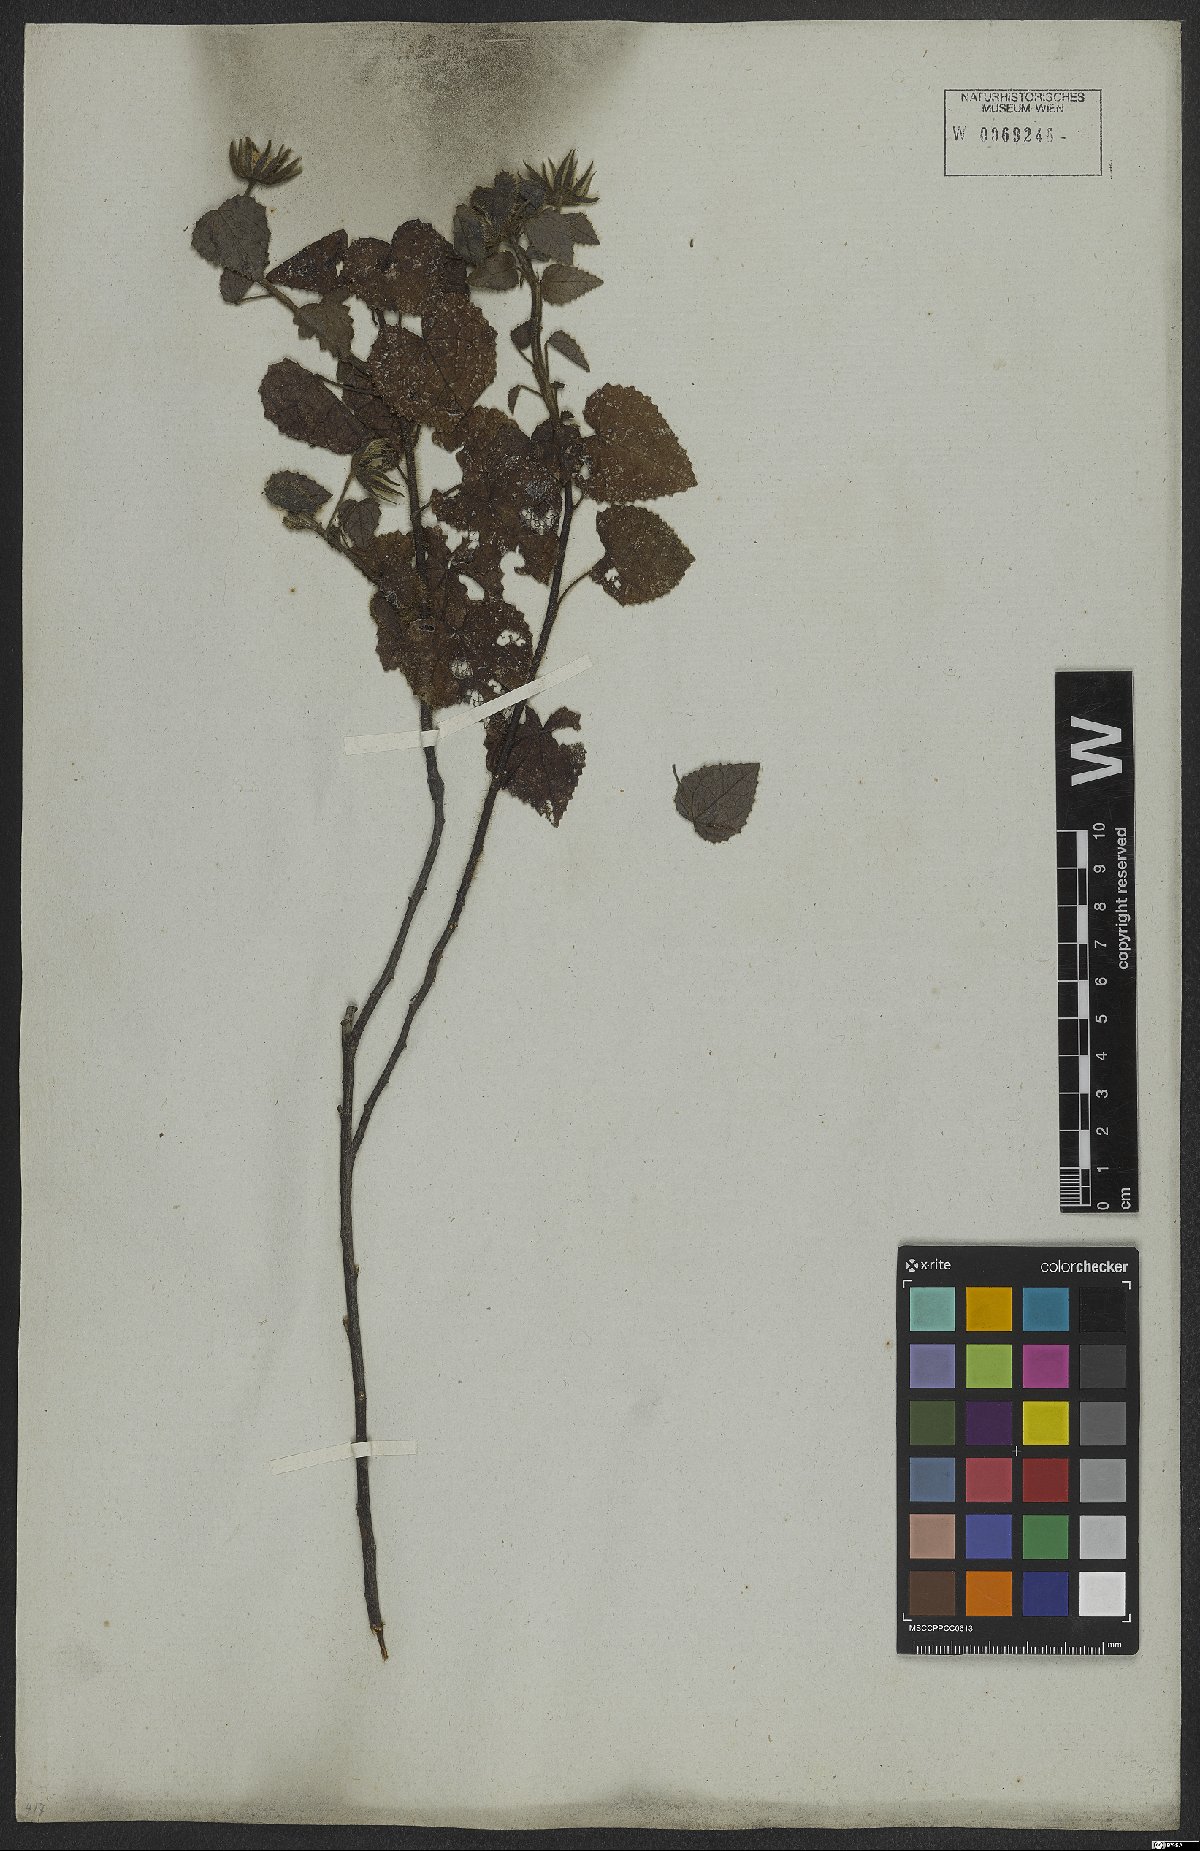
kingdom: Plantae
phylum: Tracheophyta
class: Magnoliopsida
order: Malvales
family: Malvaceae
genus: Pavonia
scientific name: Pavonia rosa-campestris
